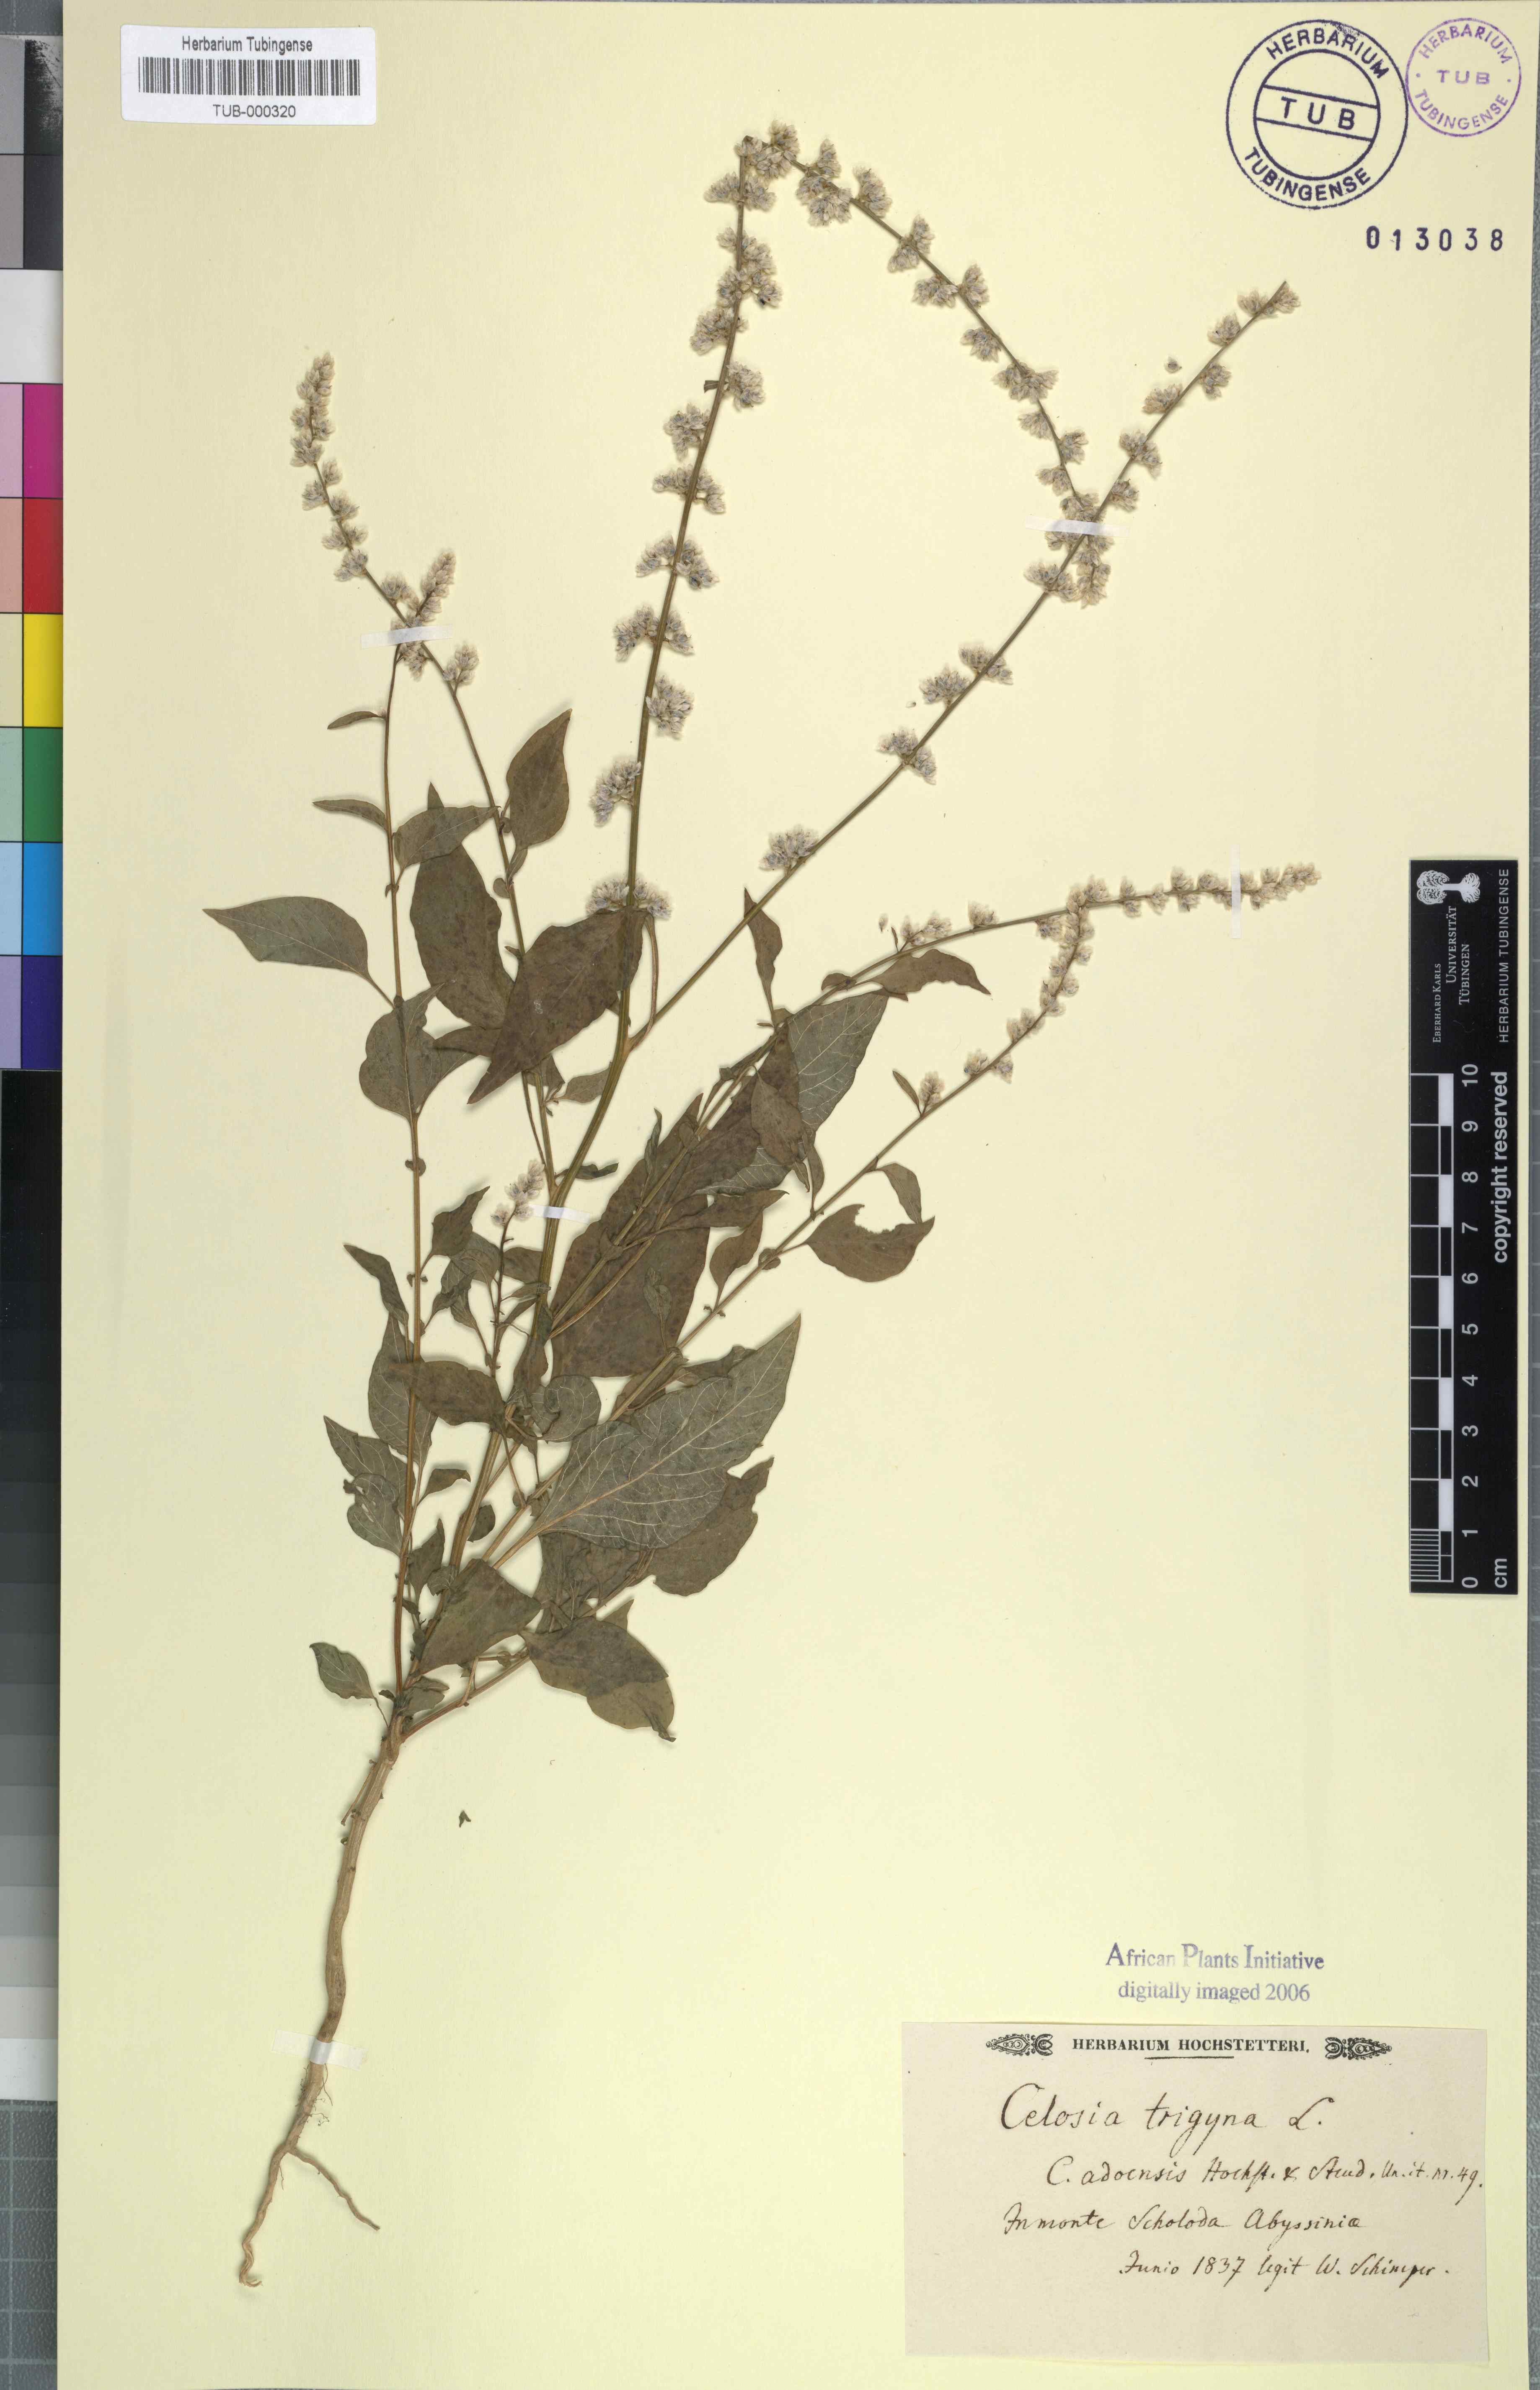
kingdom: Plantae
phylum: Tracheophyta
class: Magnoliopsida
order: Caryophyllales
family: Amaranthaceae
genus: Celosia
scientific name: Celosia trigyna
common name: Woolflower
